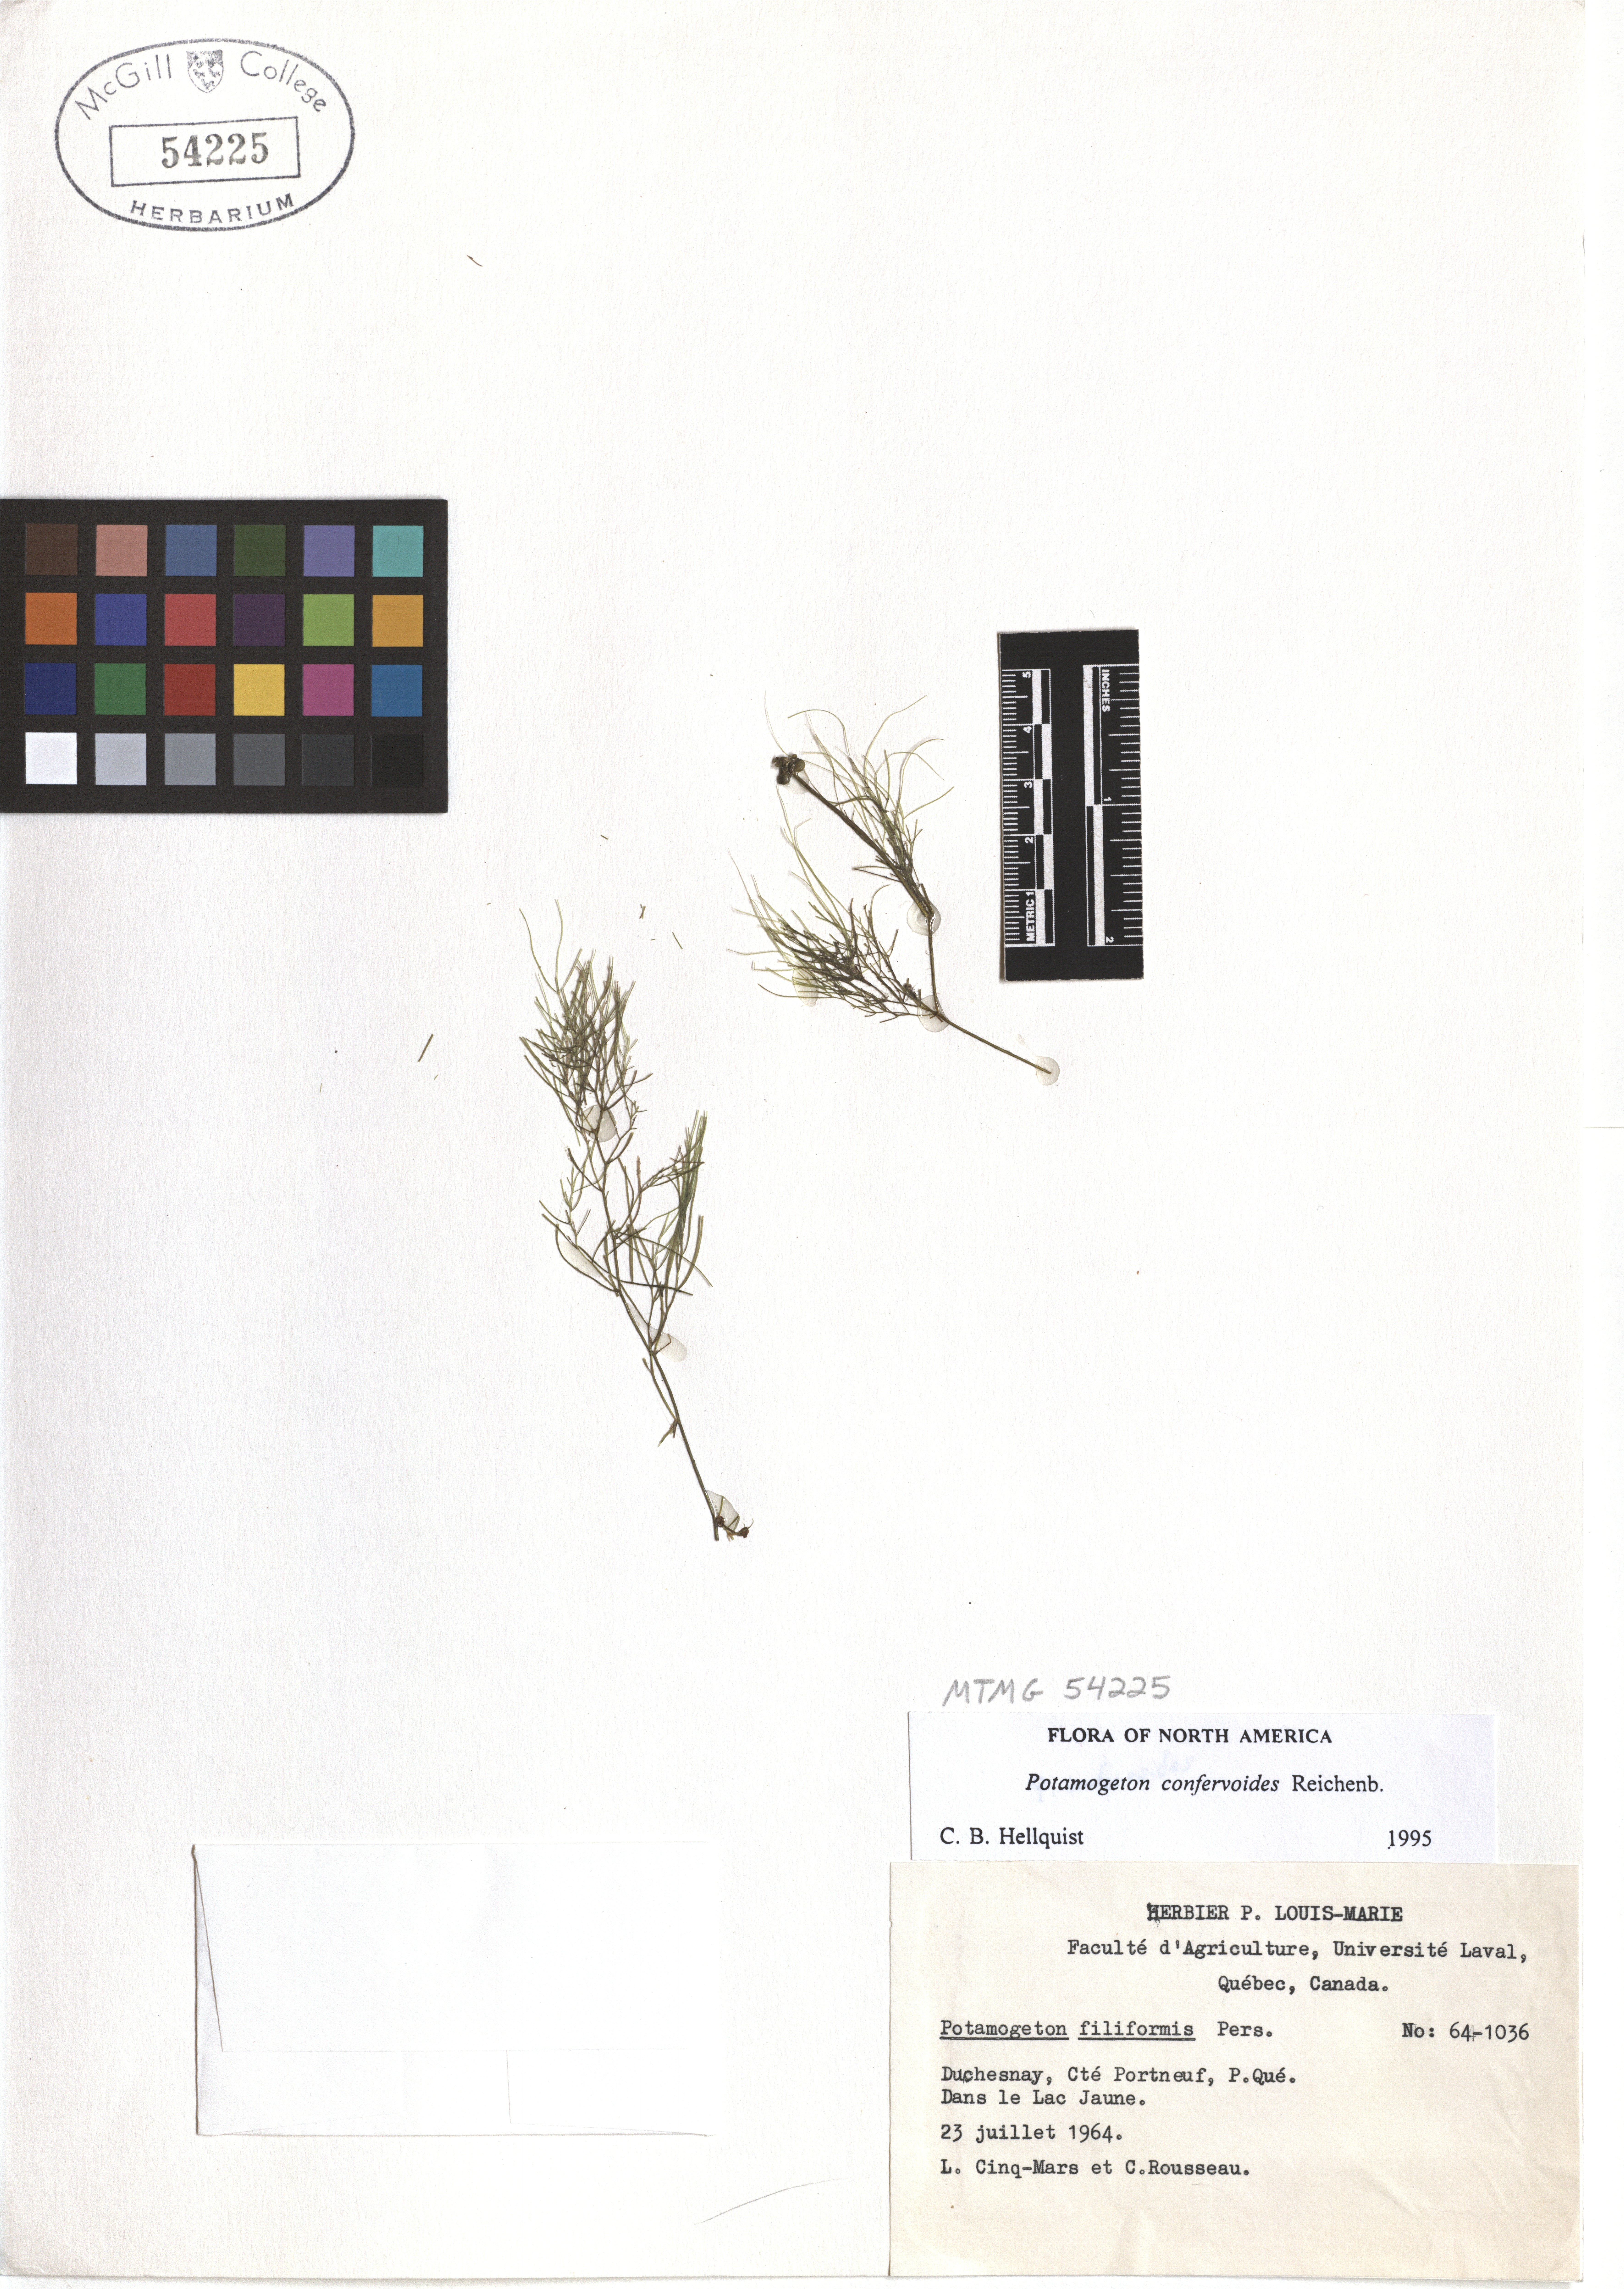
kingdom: Plantae
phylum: Tracheophyta
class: Liliopsida
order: Alismatales
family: Potamogetonaceae
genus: Potamogeton
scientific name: Potamogeton confervoides
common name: Alga pondweed
